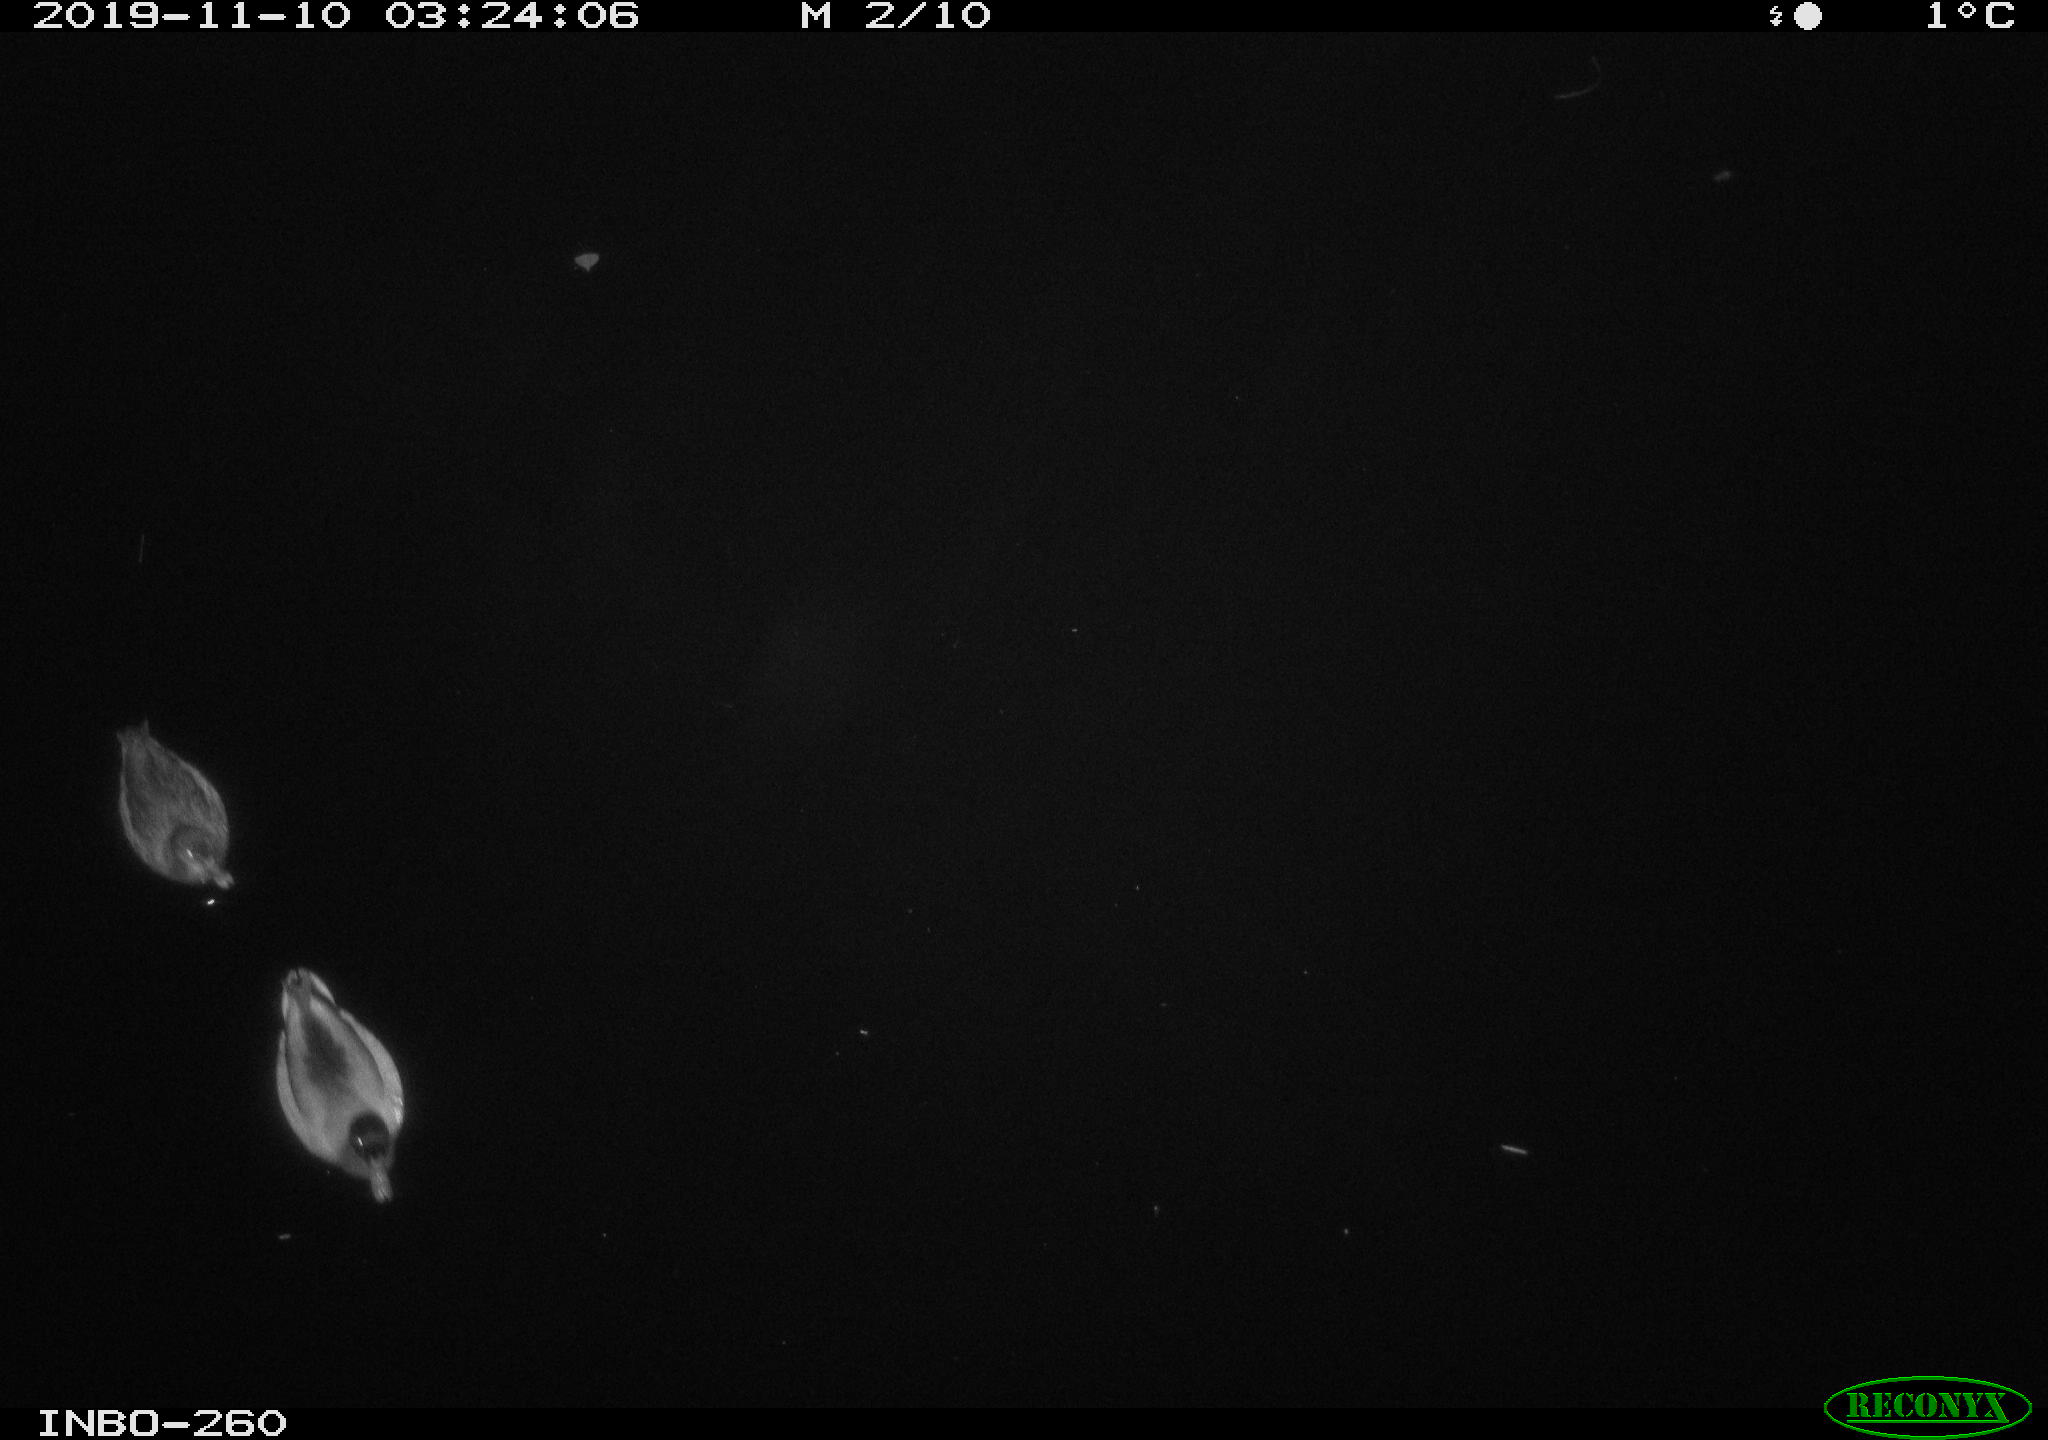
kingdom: Animalia
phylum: Chordata
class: Aves
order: Anseriformes
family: Anatidae
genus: Anas
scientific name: Anas platyrhynchos
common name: Mallard
